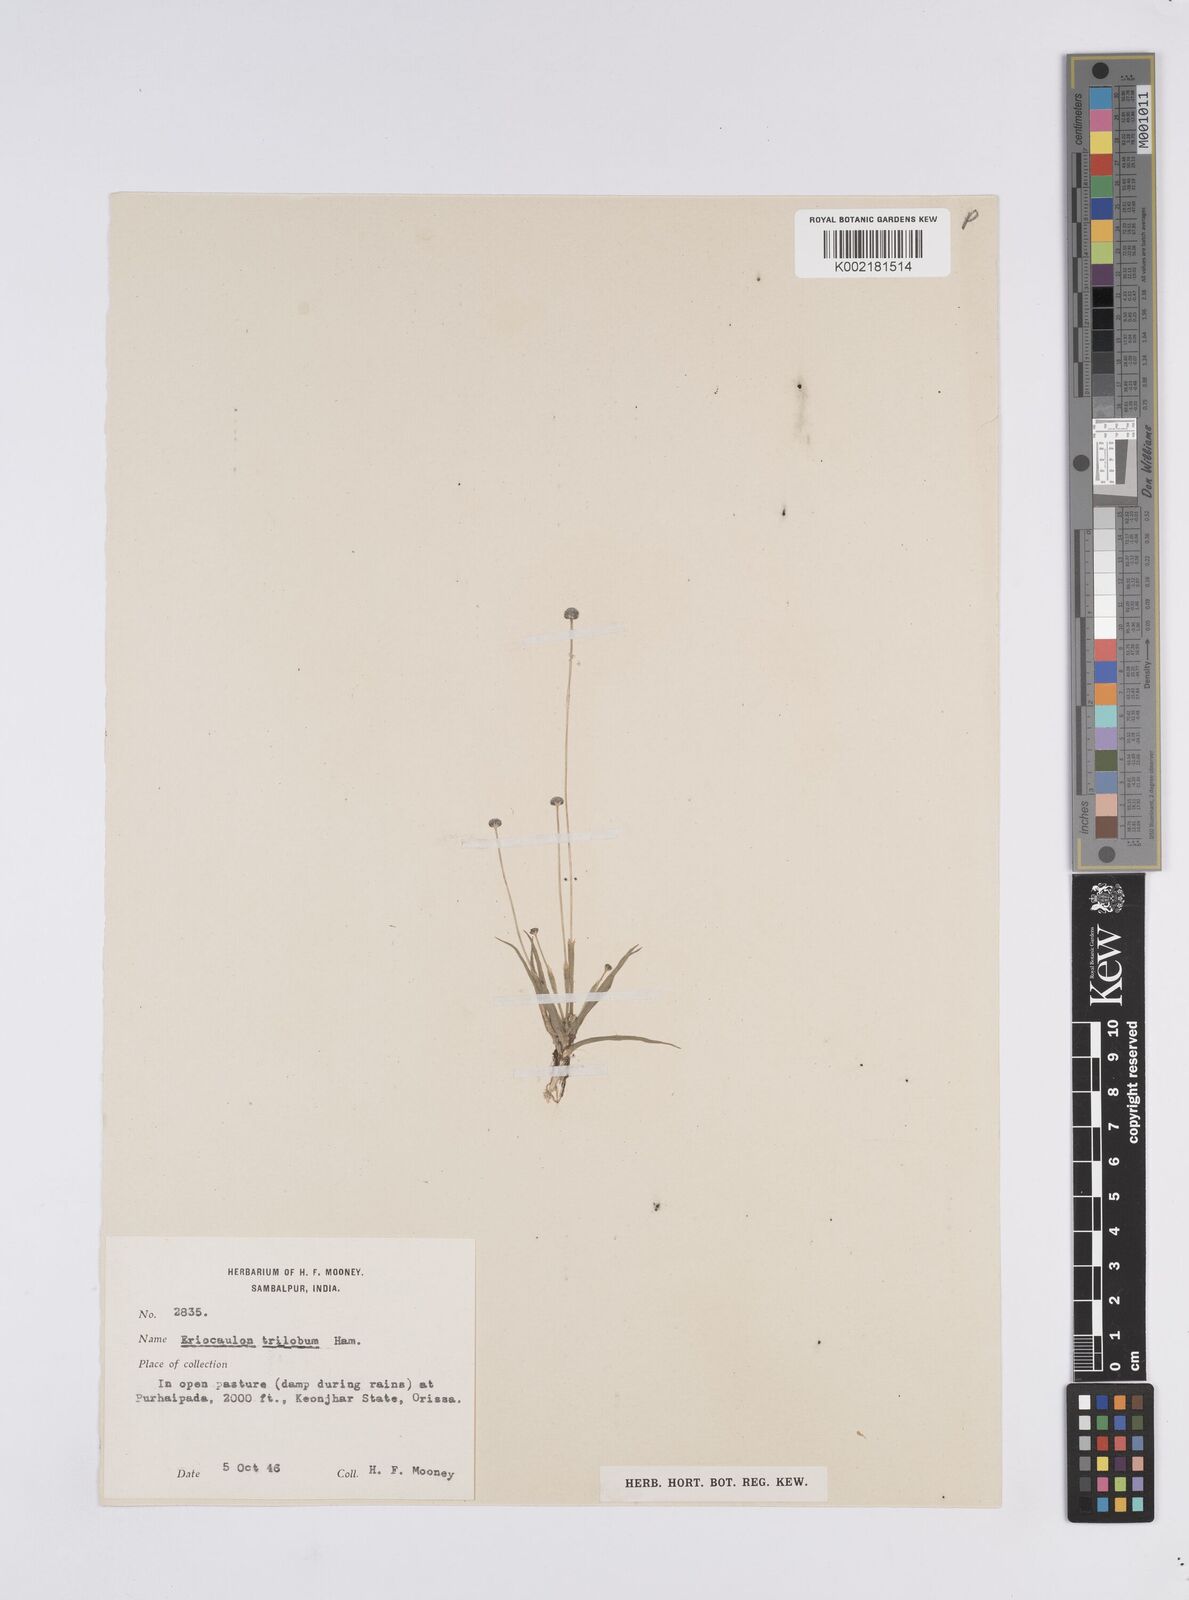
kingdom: Plantae
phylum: Tracheophyta
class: Liliopsida
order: Poales
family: Eriocaulaceae
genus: Eriocaulon
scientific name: Eriocaulon sollyanum
